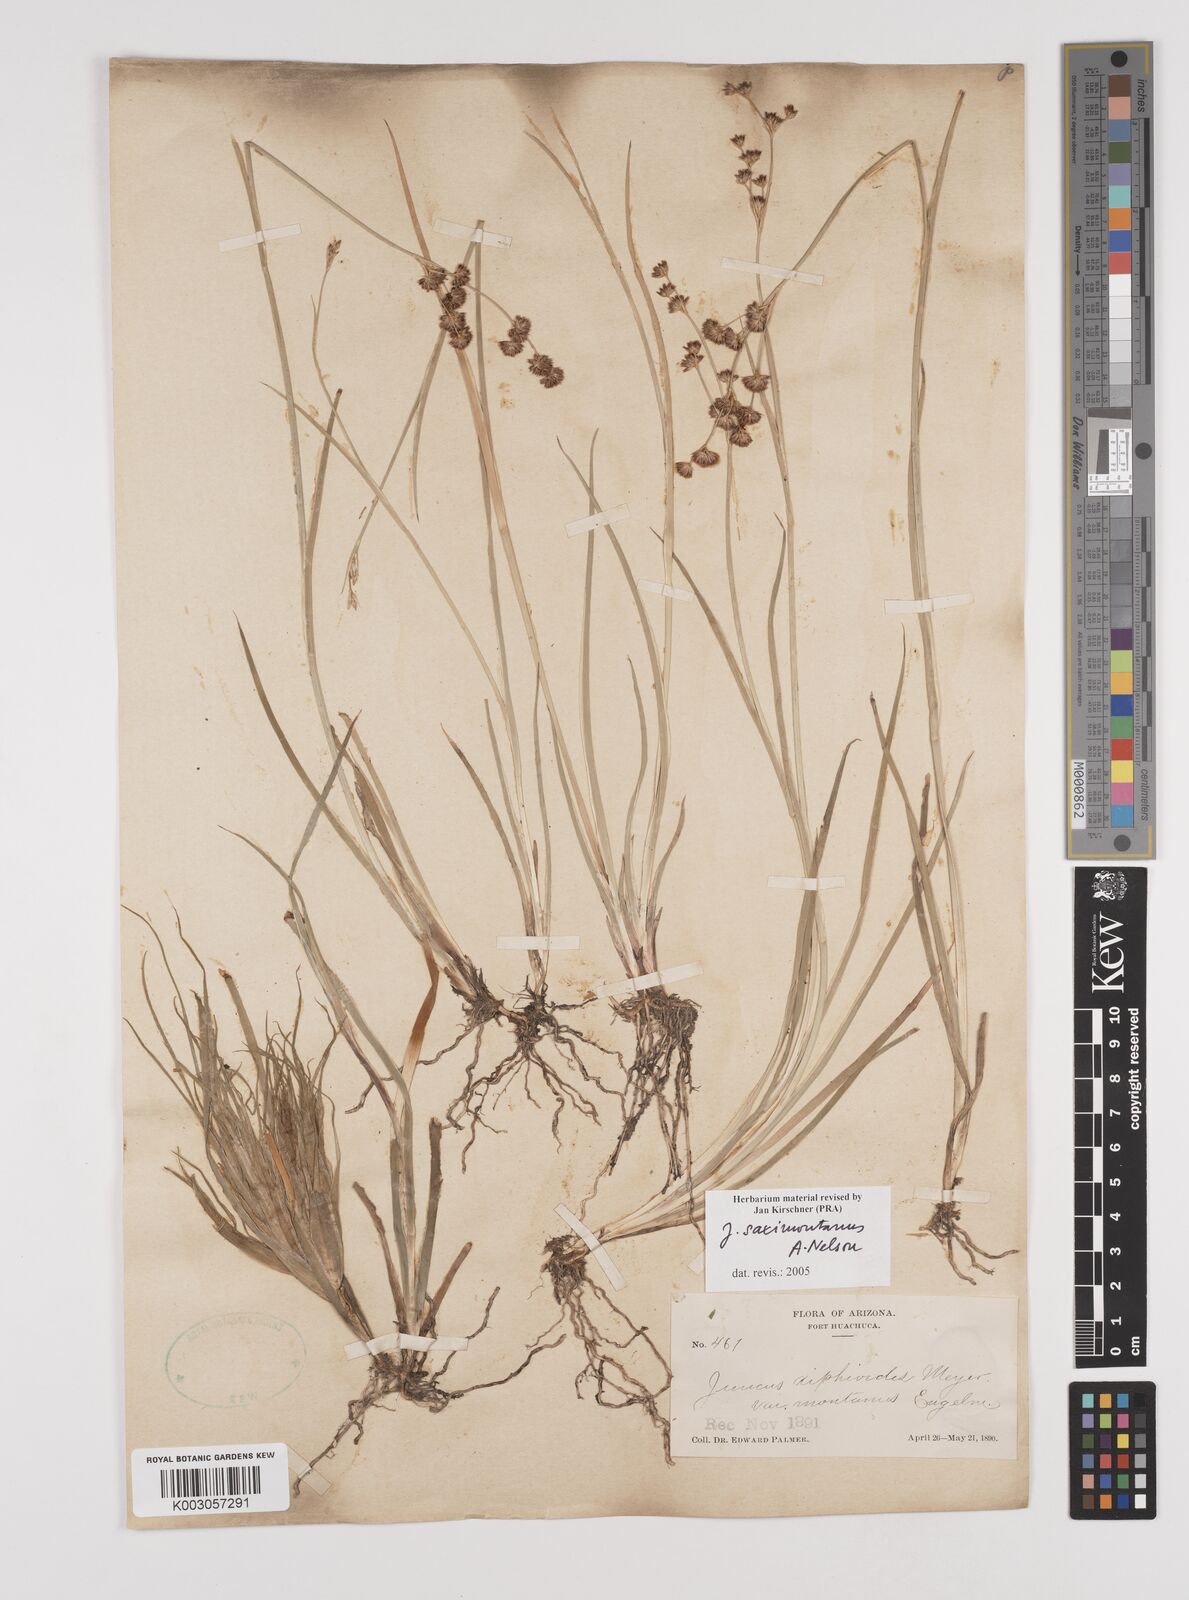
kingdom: Plantae
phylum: Tracheophyta
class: Liliopsida
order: Poales
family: Juncaceae
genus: Juncus
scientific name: Juncus saximontanus
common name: Rocky mountain rush
